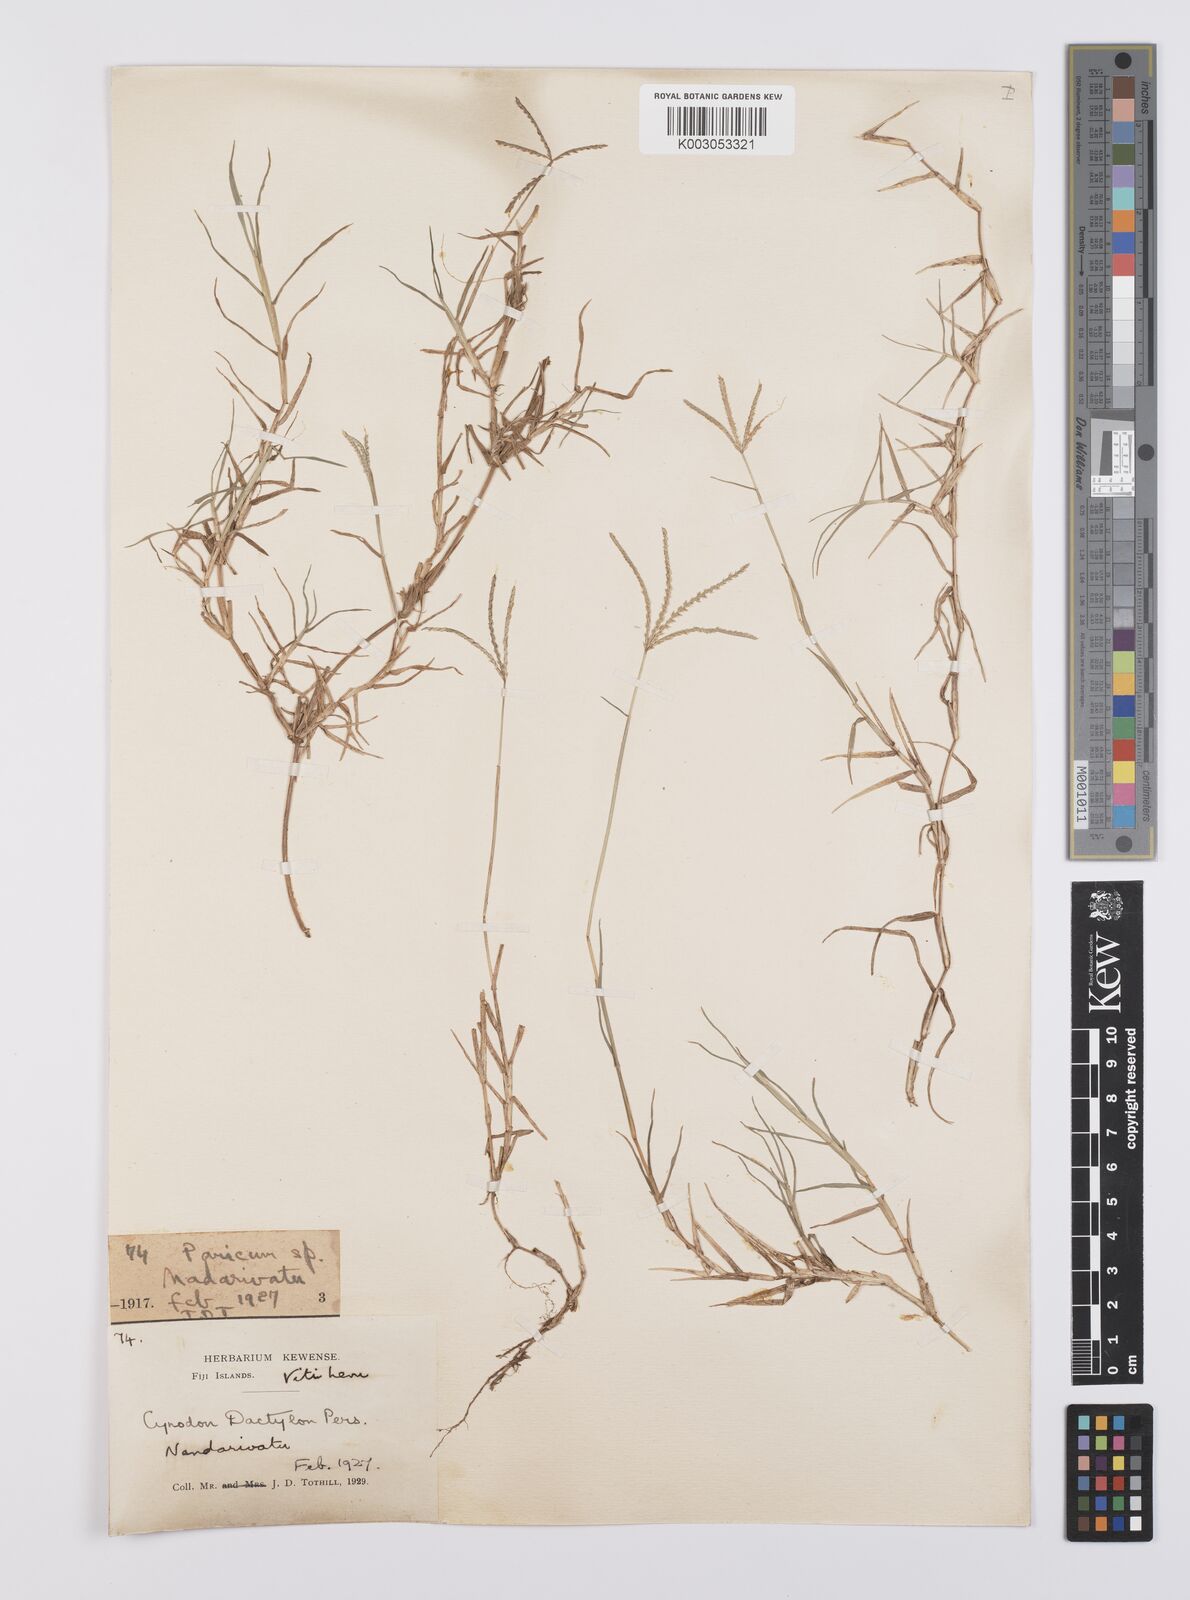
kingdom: Plantae
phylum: Tracheophyta
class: Liliopsida
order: Poales
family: Poaceae
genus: Cynodon
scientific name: Cynodon dactylon
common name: Bermuda grass
